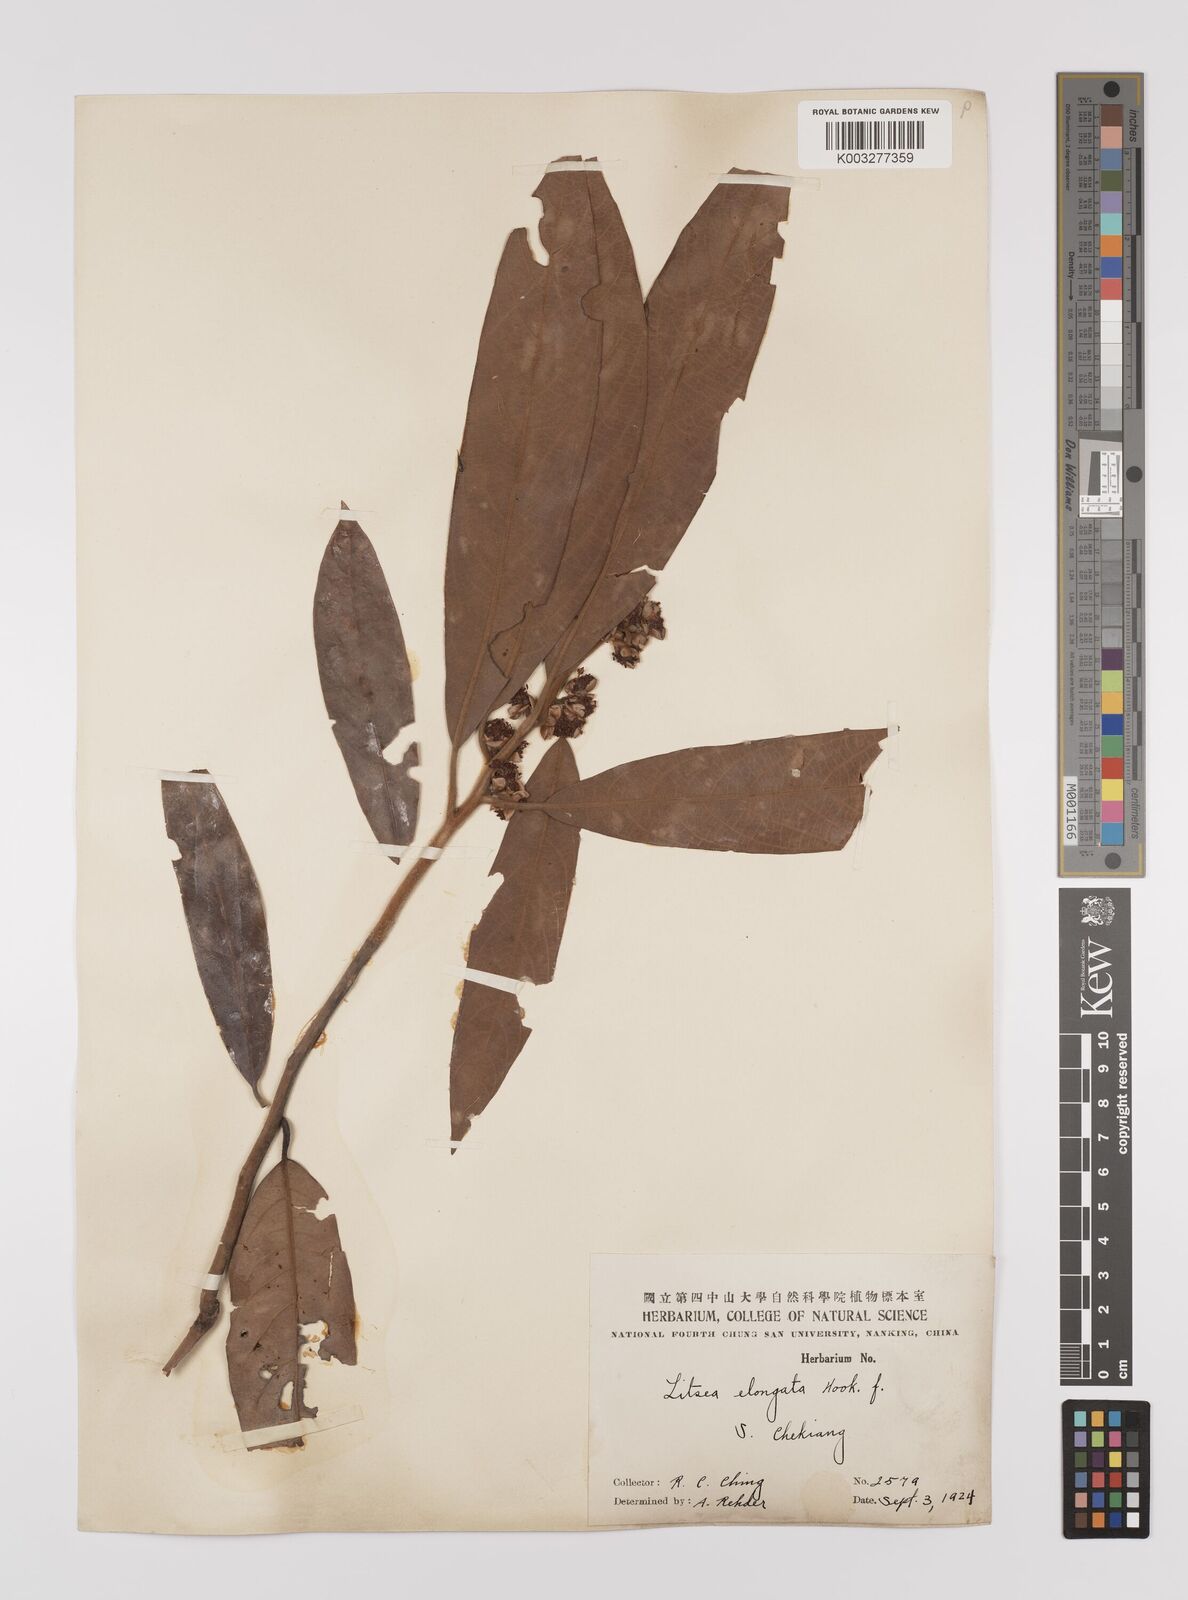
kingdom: Plantae
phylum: Tracheophyta
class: Magnoliopsida
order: Laurales
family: Lauraceae
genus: Litsea
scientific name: Litsea elongata
